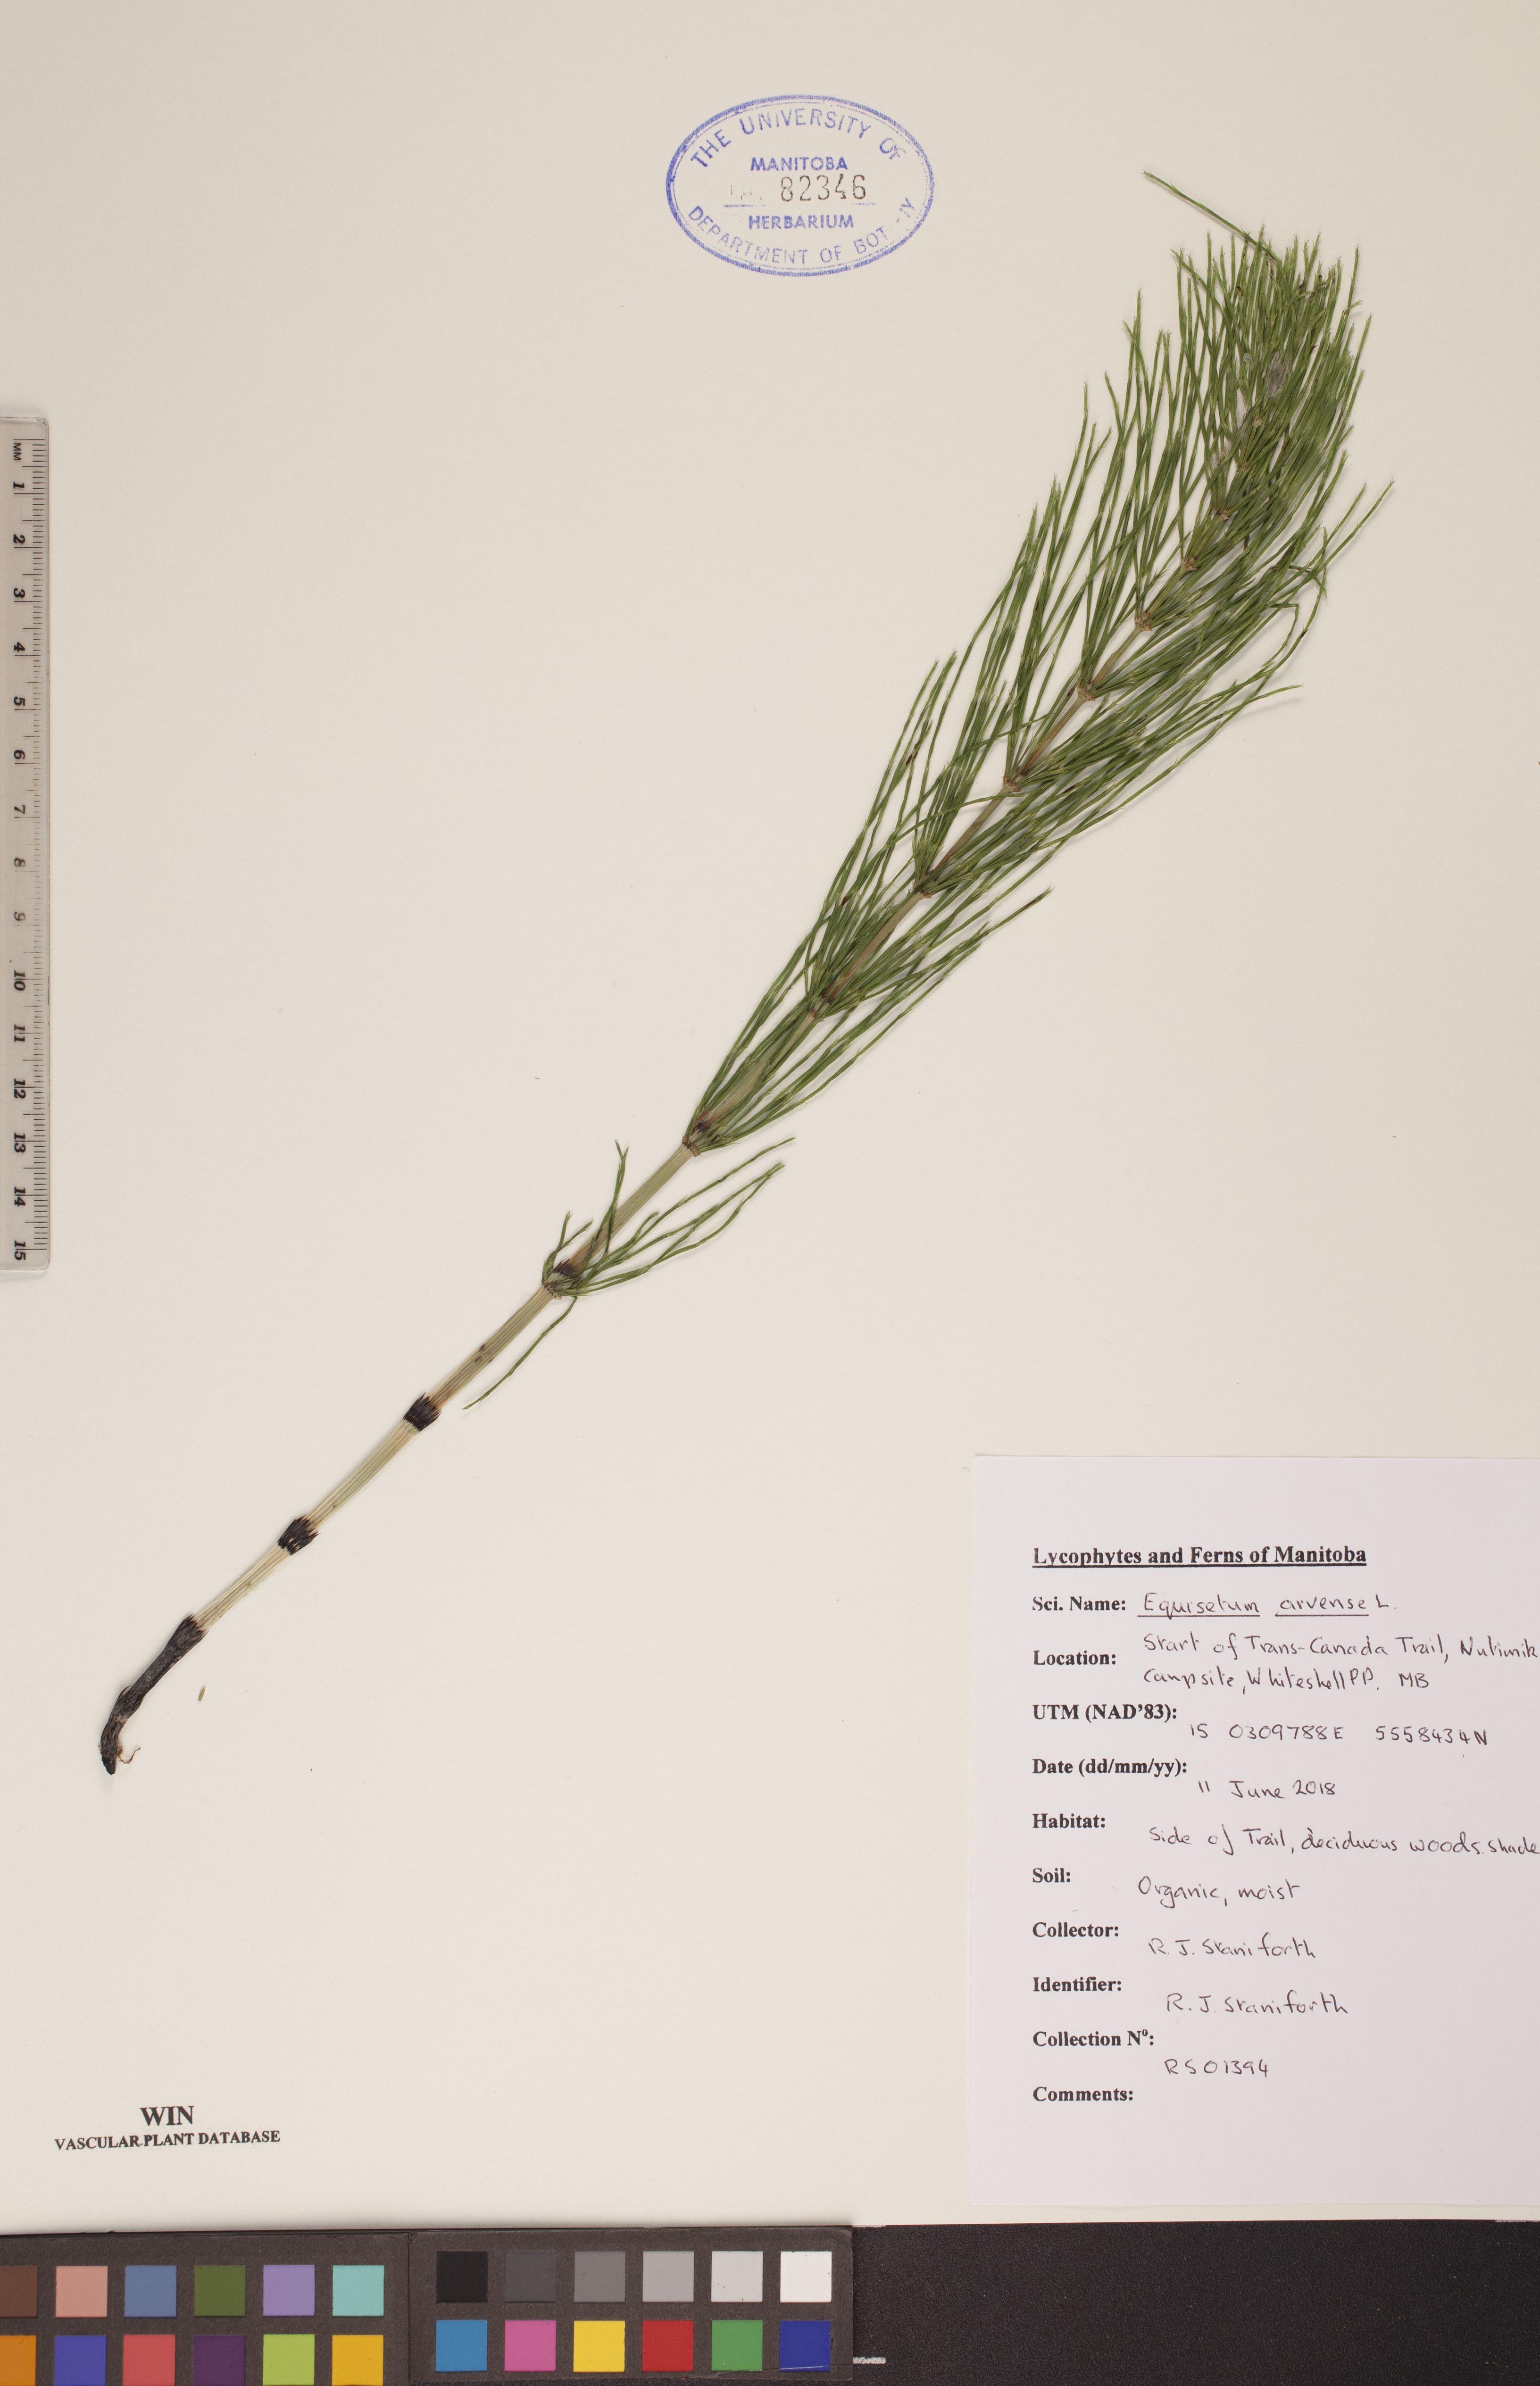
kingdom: Plantae
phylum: Tracheophyta
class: Polypodiopsida
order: Equisetales
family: Equisetaceae
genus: Equisetum
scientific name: Equisetum arvense
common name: Field horsetail
